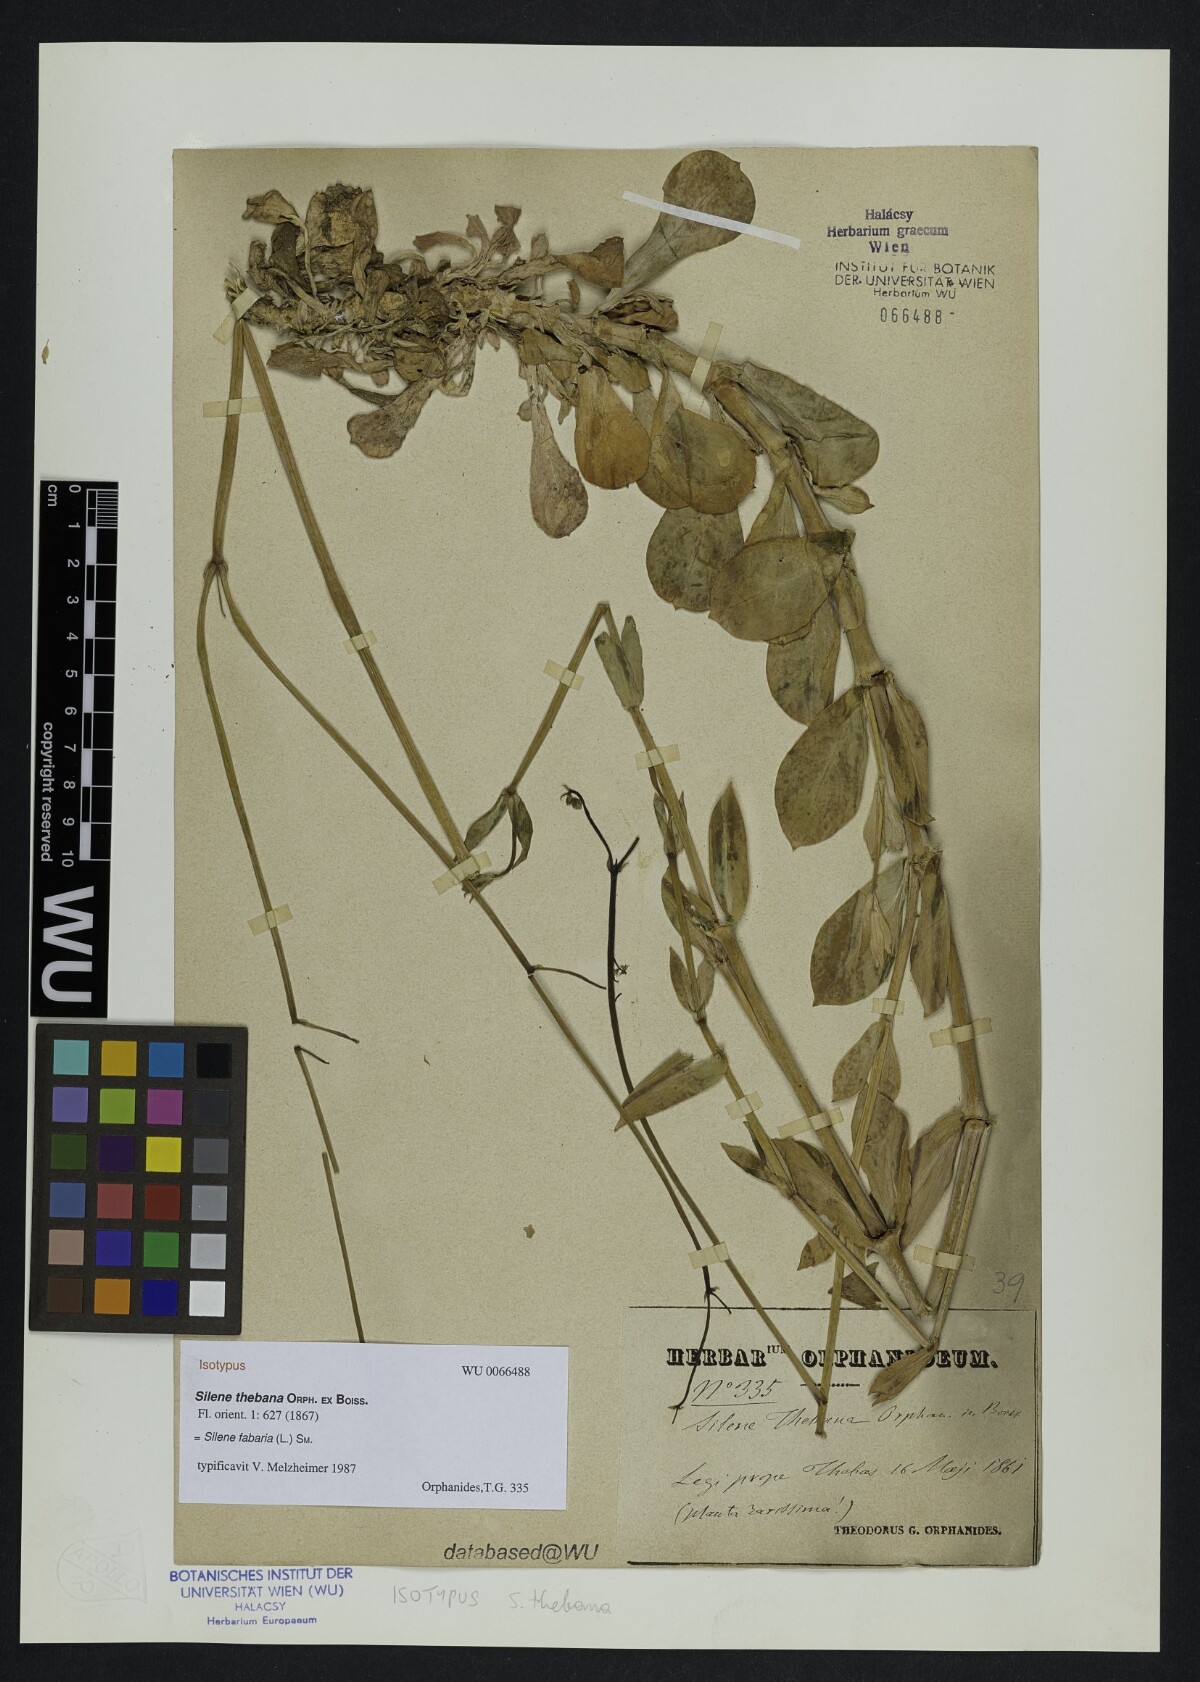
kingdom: Plantae
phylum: Tracheophyta
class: Magnoliopsida
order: Caryophyllales
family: Caryophyllaceae
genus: Silene
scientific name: Silene fabaria
